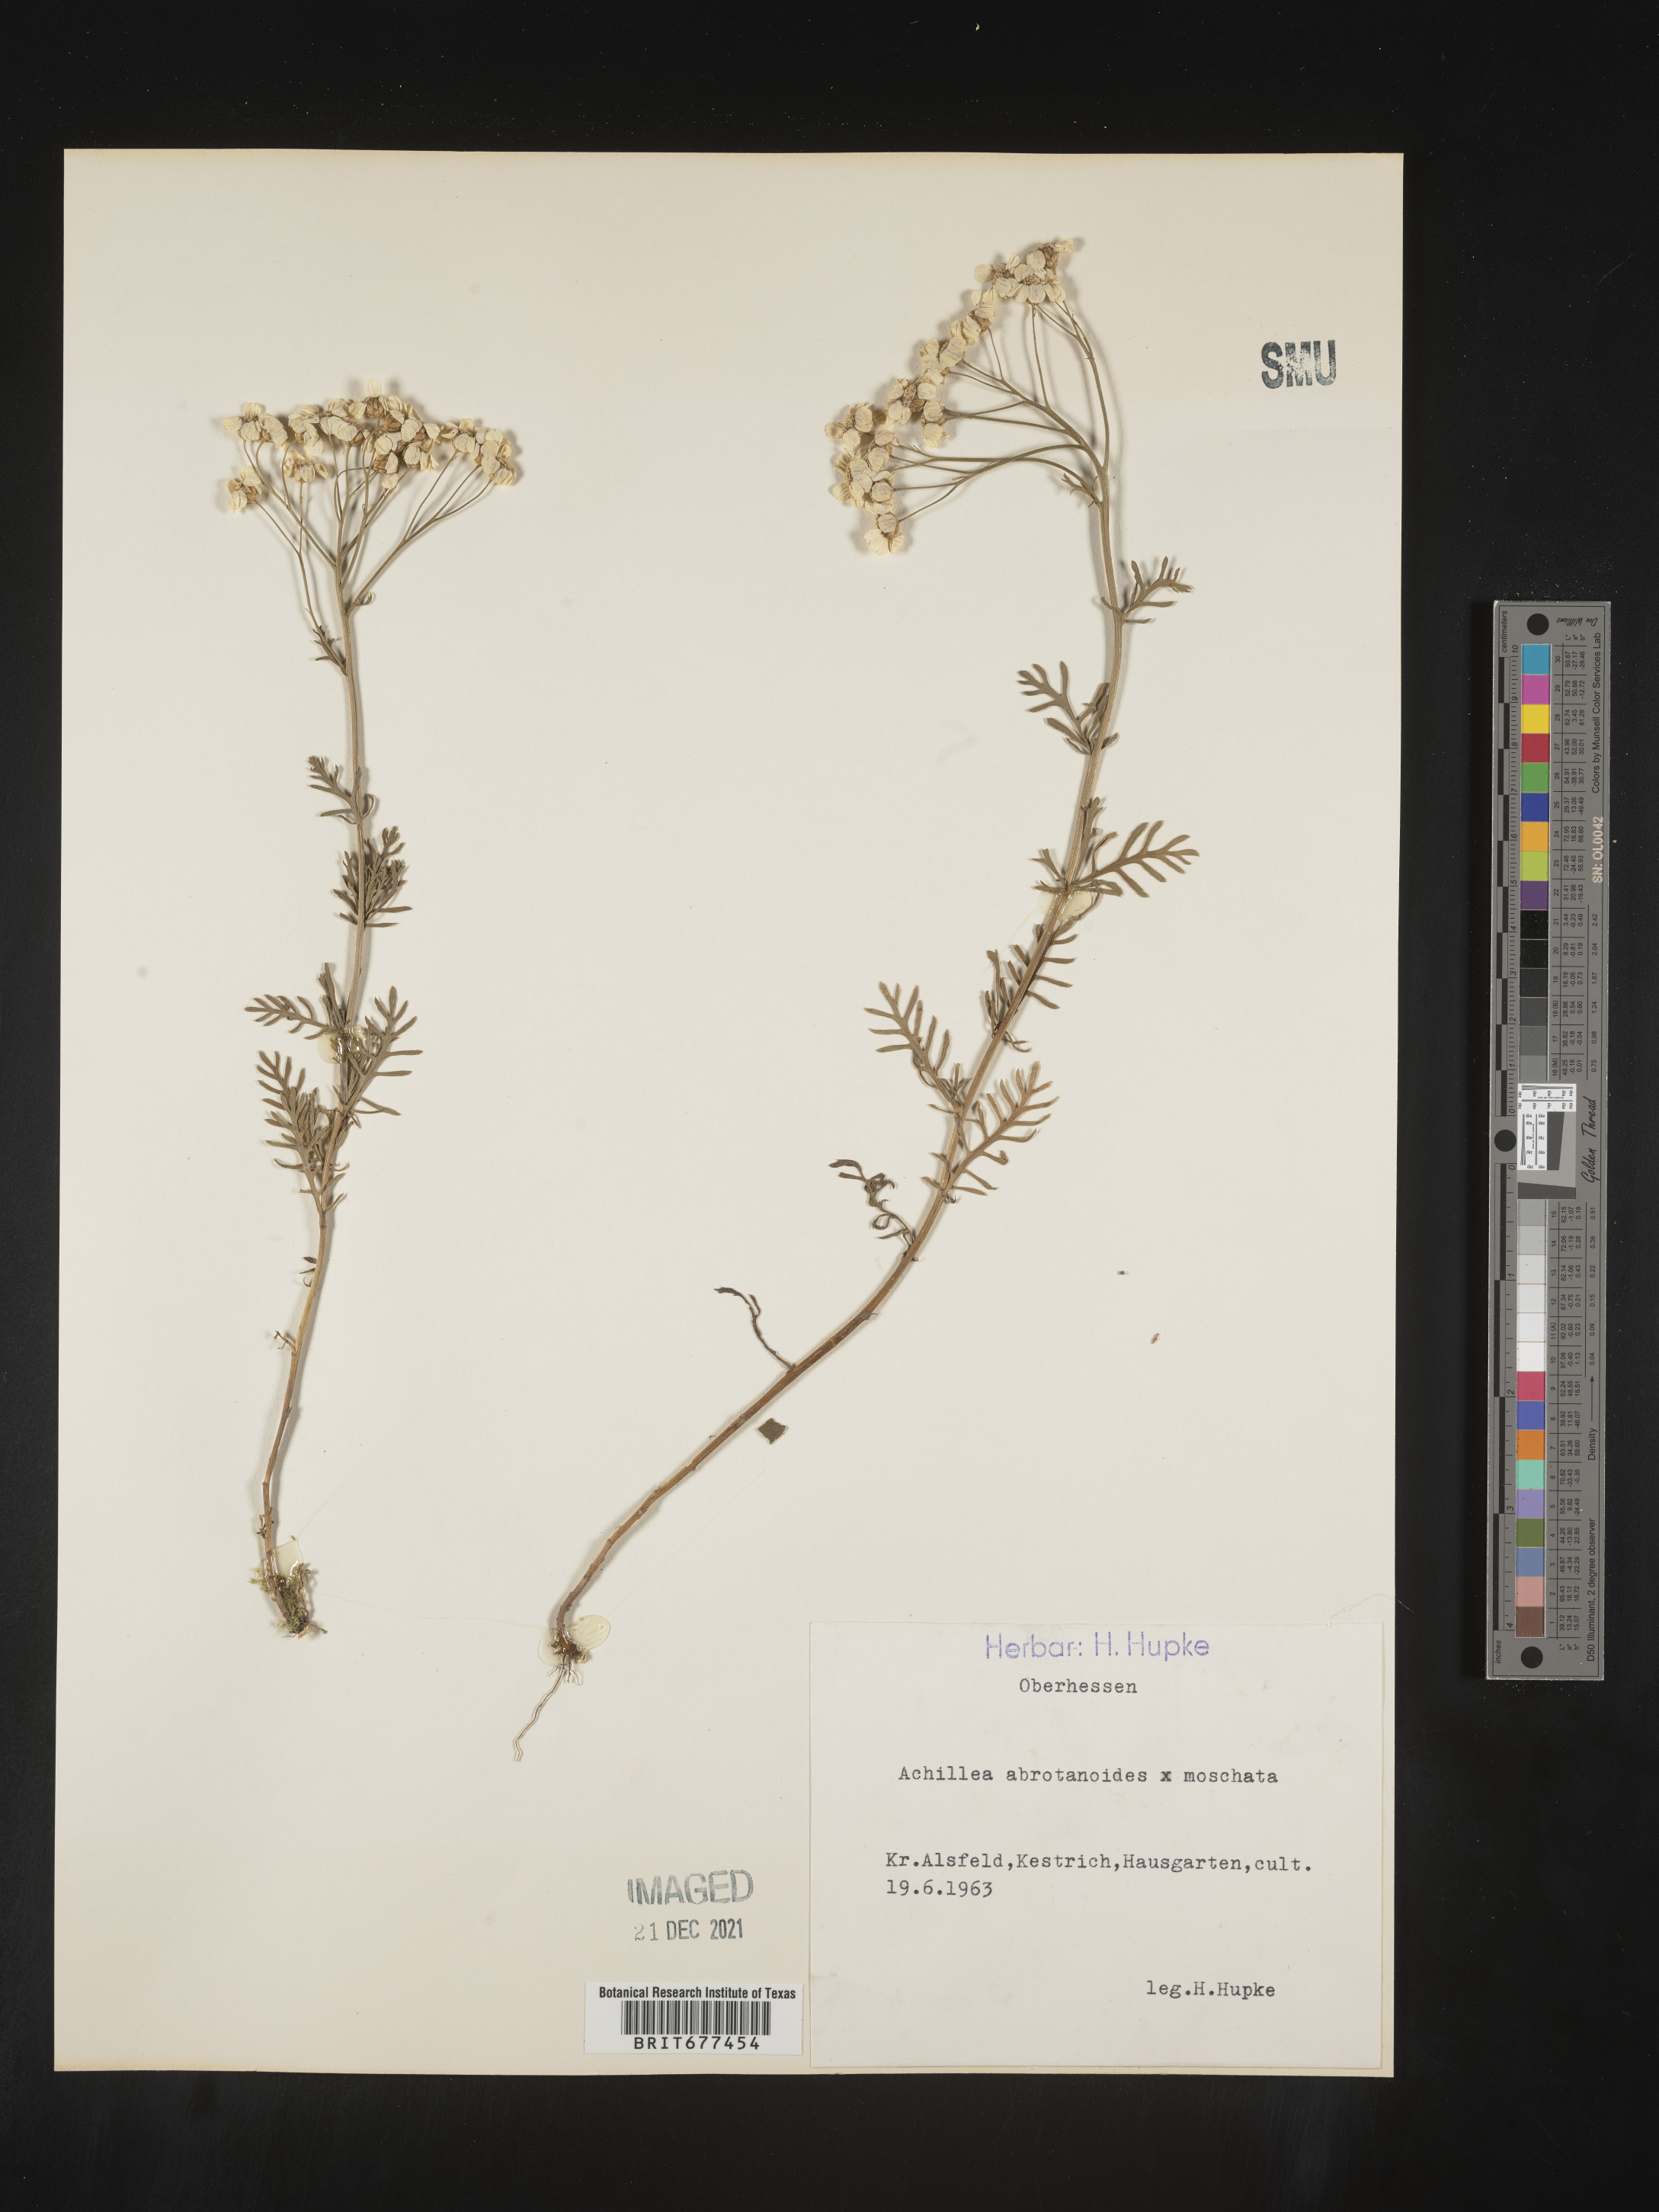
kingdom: Plantae
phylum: Tracheophyta
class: Magnoliopsida
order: Asterales
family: Asteraceae
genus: Achillea
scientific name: Achillea
